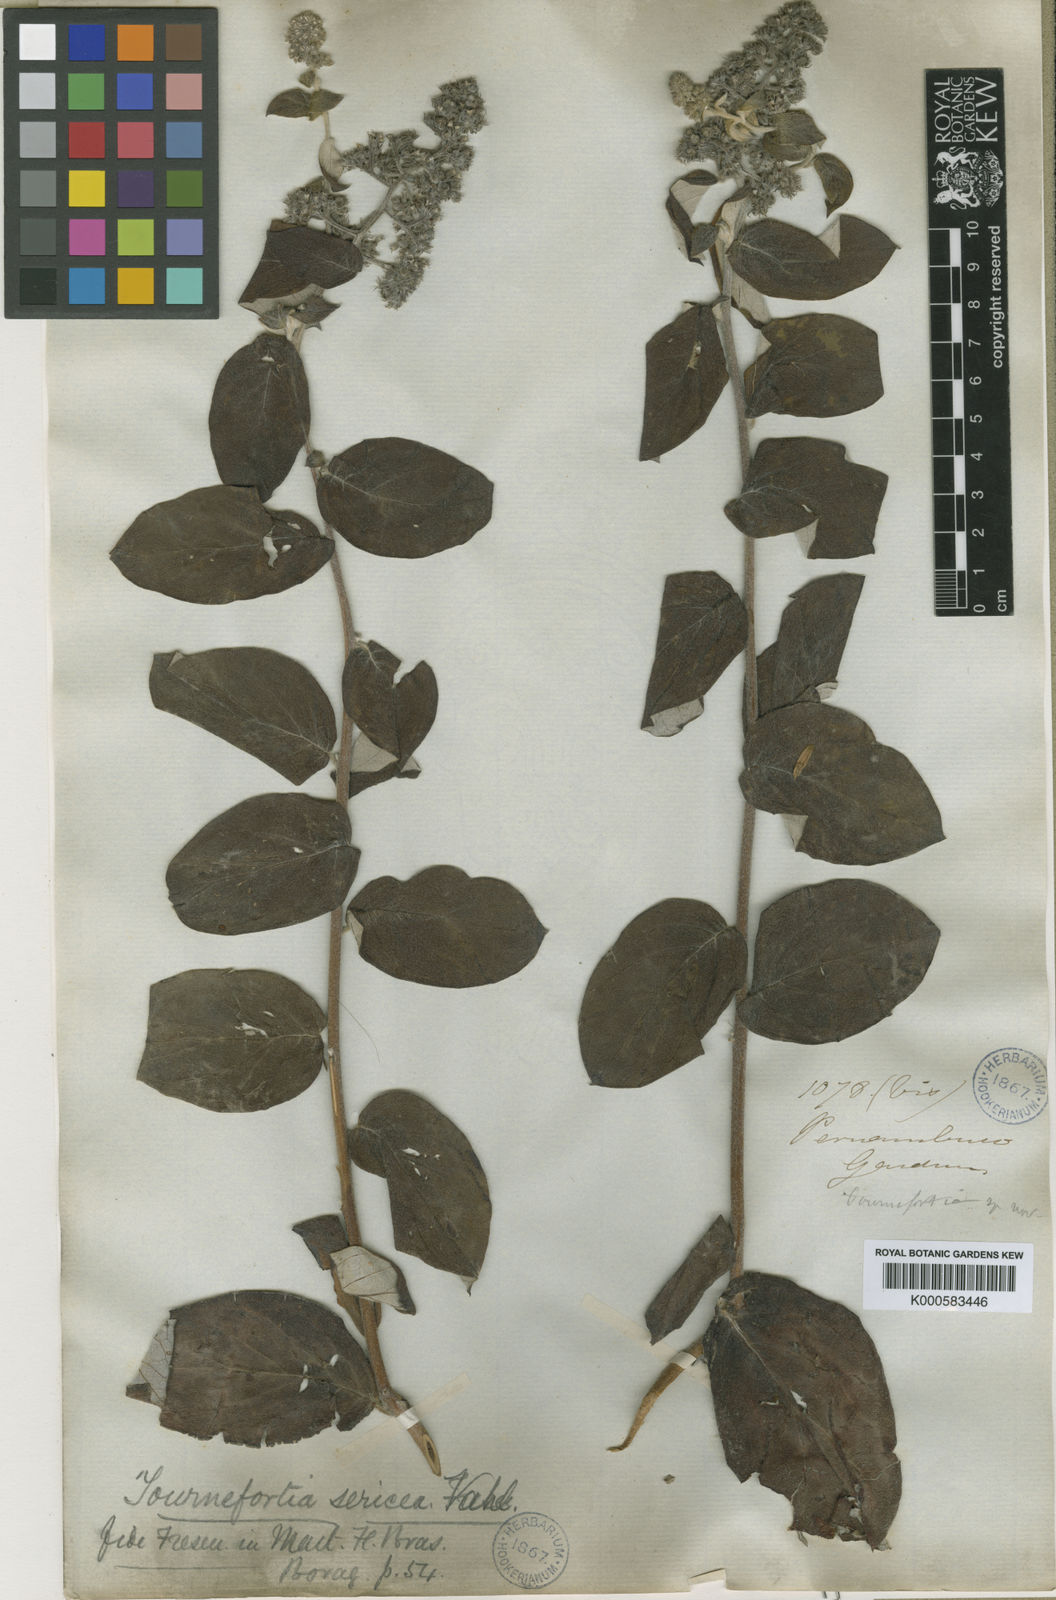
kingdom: Plantae
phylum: Tracheophyta
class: Magnoliopsida
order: Boraginales
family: Heliotropiaceae
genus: Myriopus
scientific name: Myriopus candidulus
